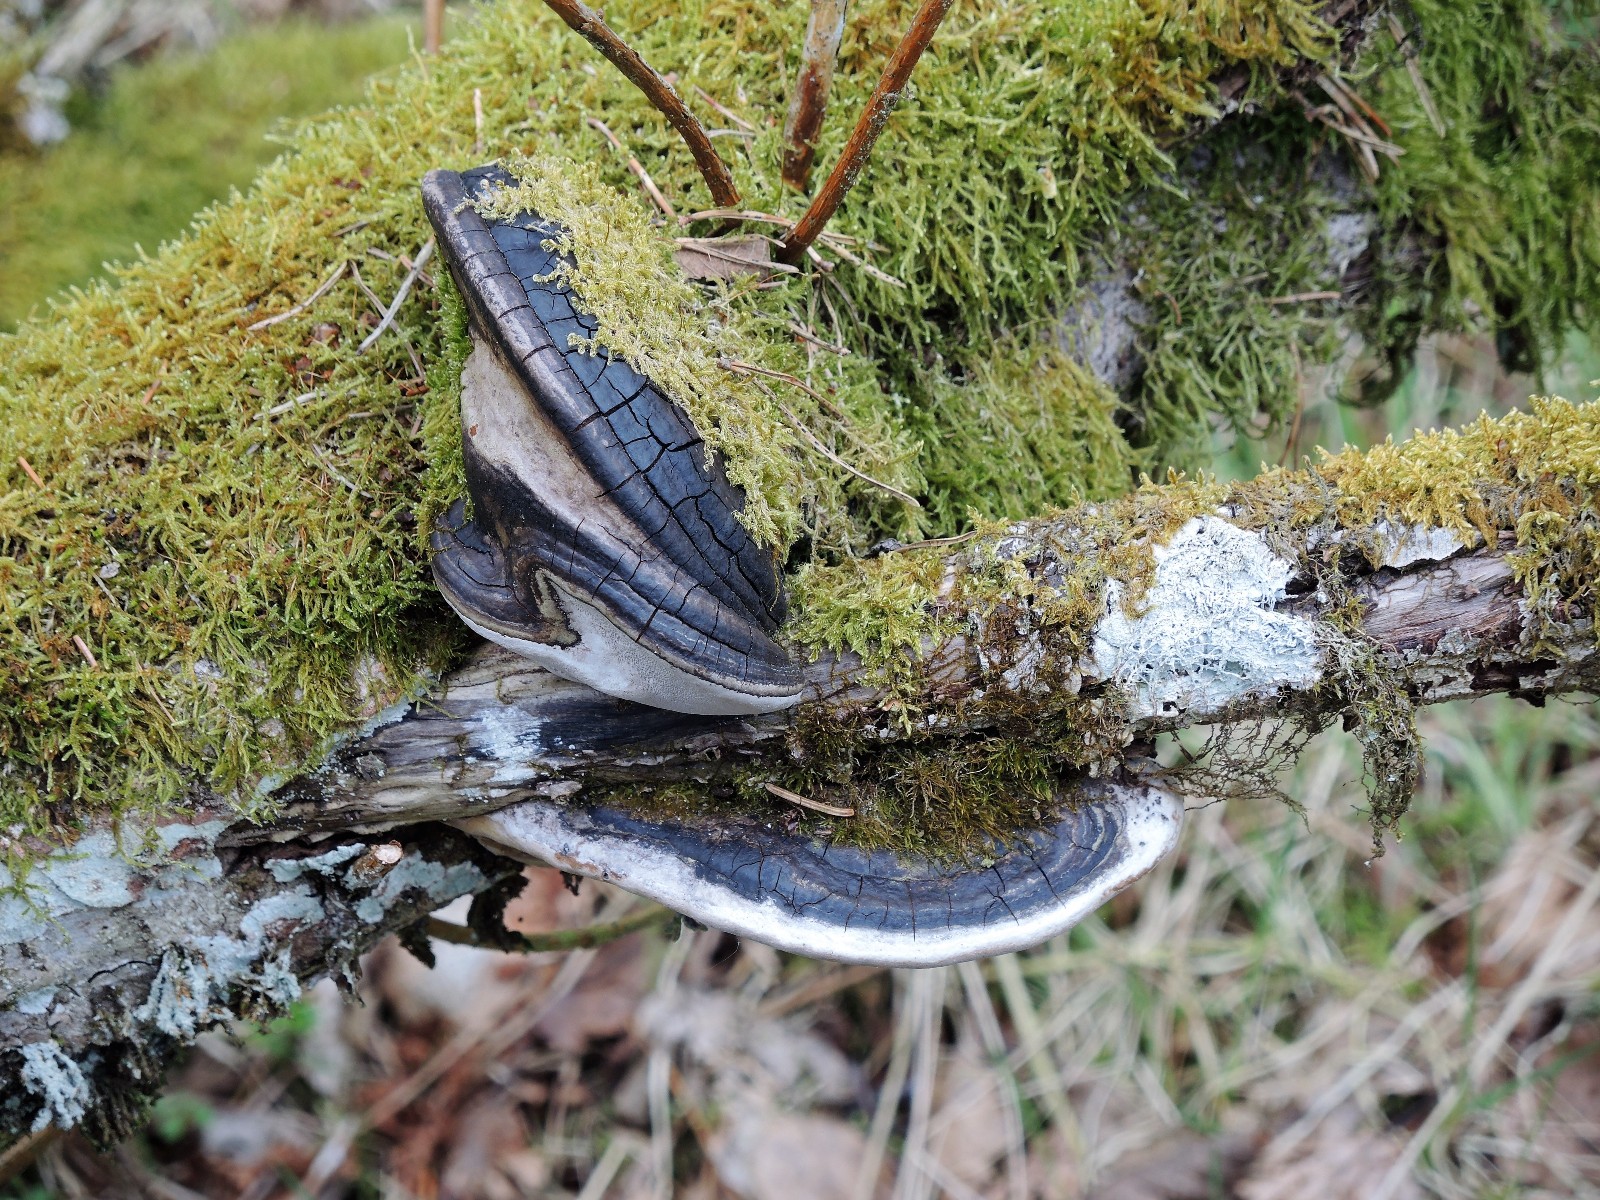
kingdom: Fungi
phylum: Basidiomycota
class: Agaricomycetes
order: Hymenochaetales
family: Hymenochaetaceae
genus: Phellinus
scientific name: Phellinus igniarius
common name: almindelig ildporesvamp
